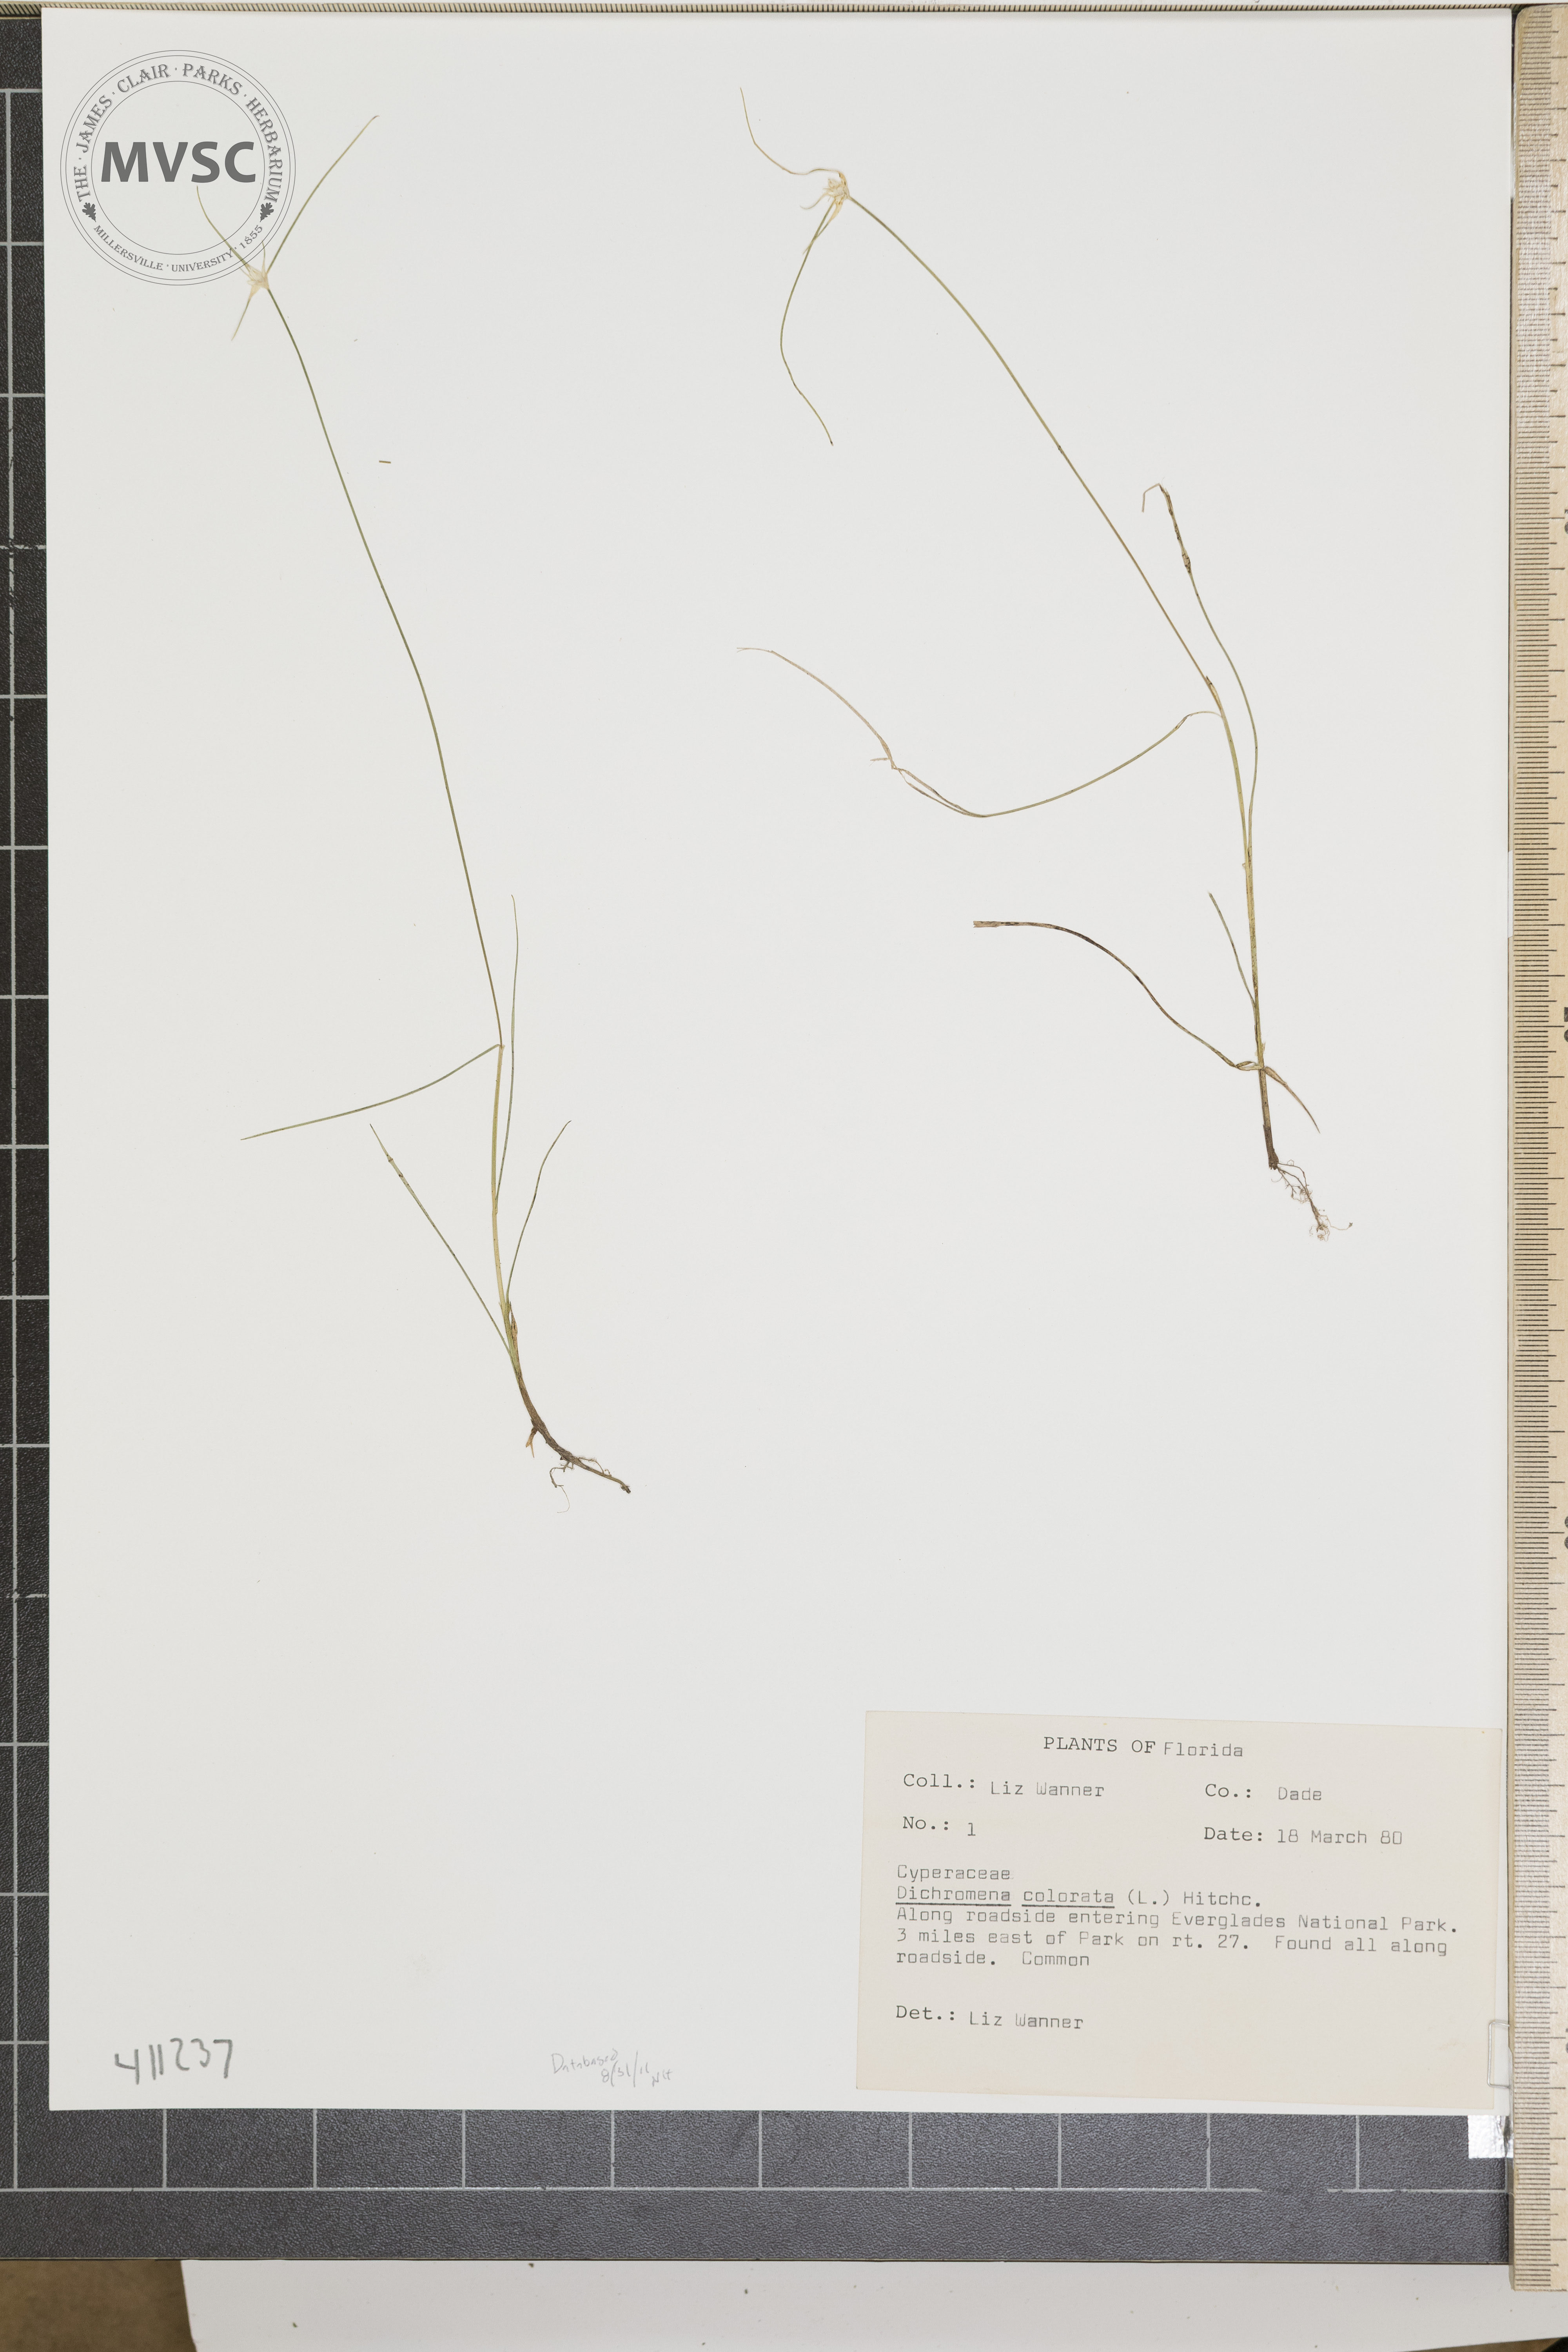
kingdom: Plantae
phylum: Tracheophyta
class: Liliopsida
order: Poales
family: Cyperaceae
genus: Rhynchospora
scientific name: Rhynchospora colorata
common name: Star sedge
